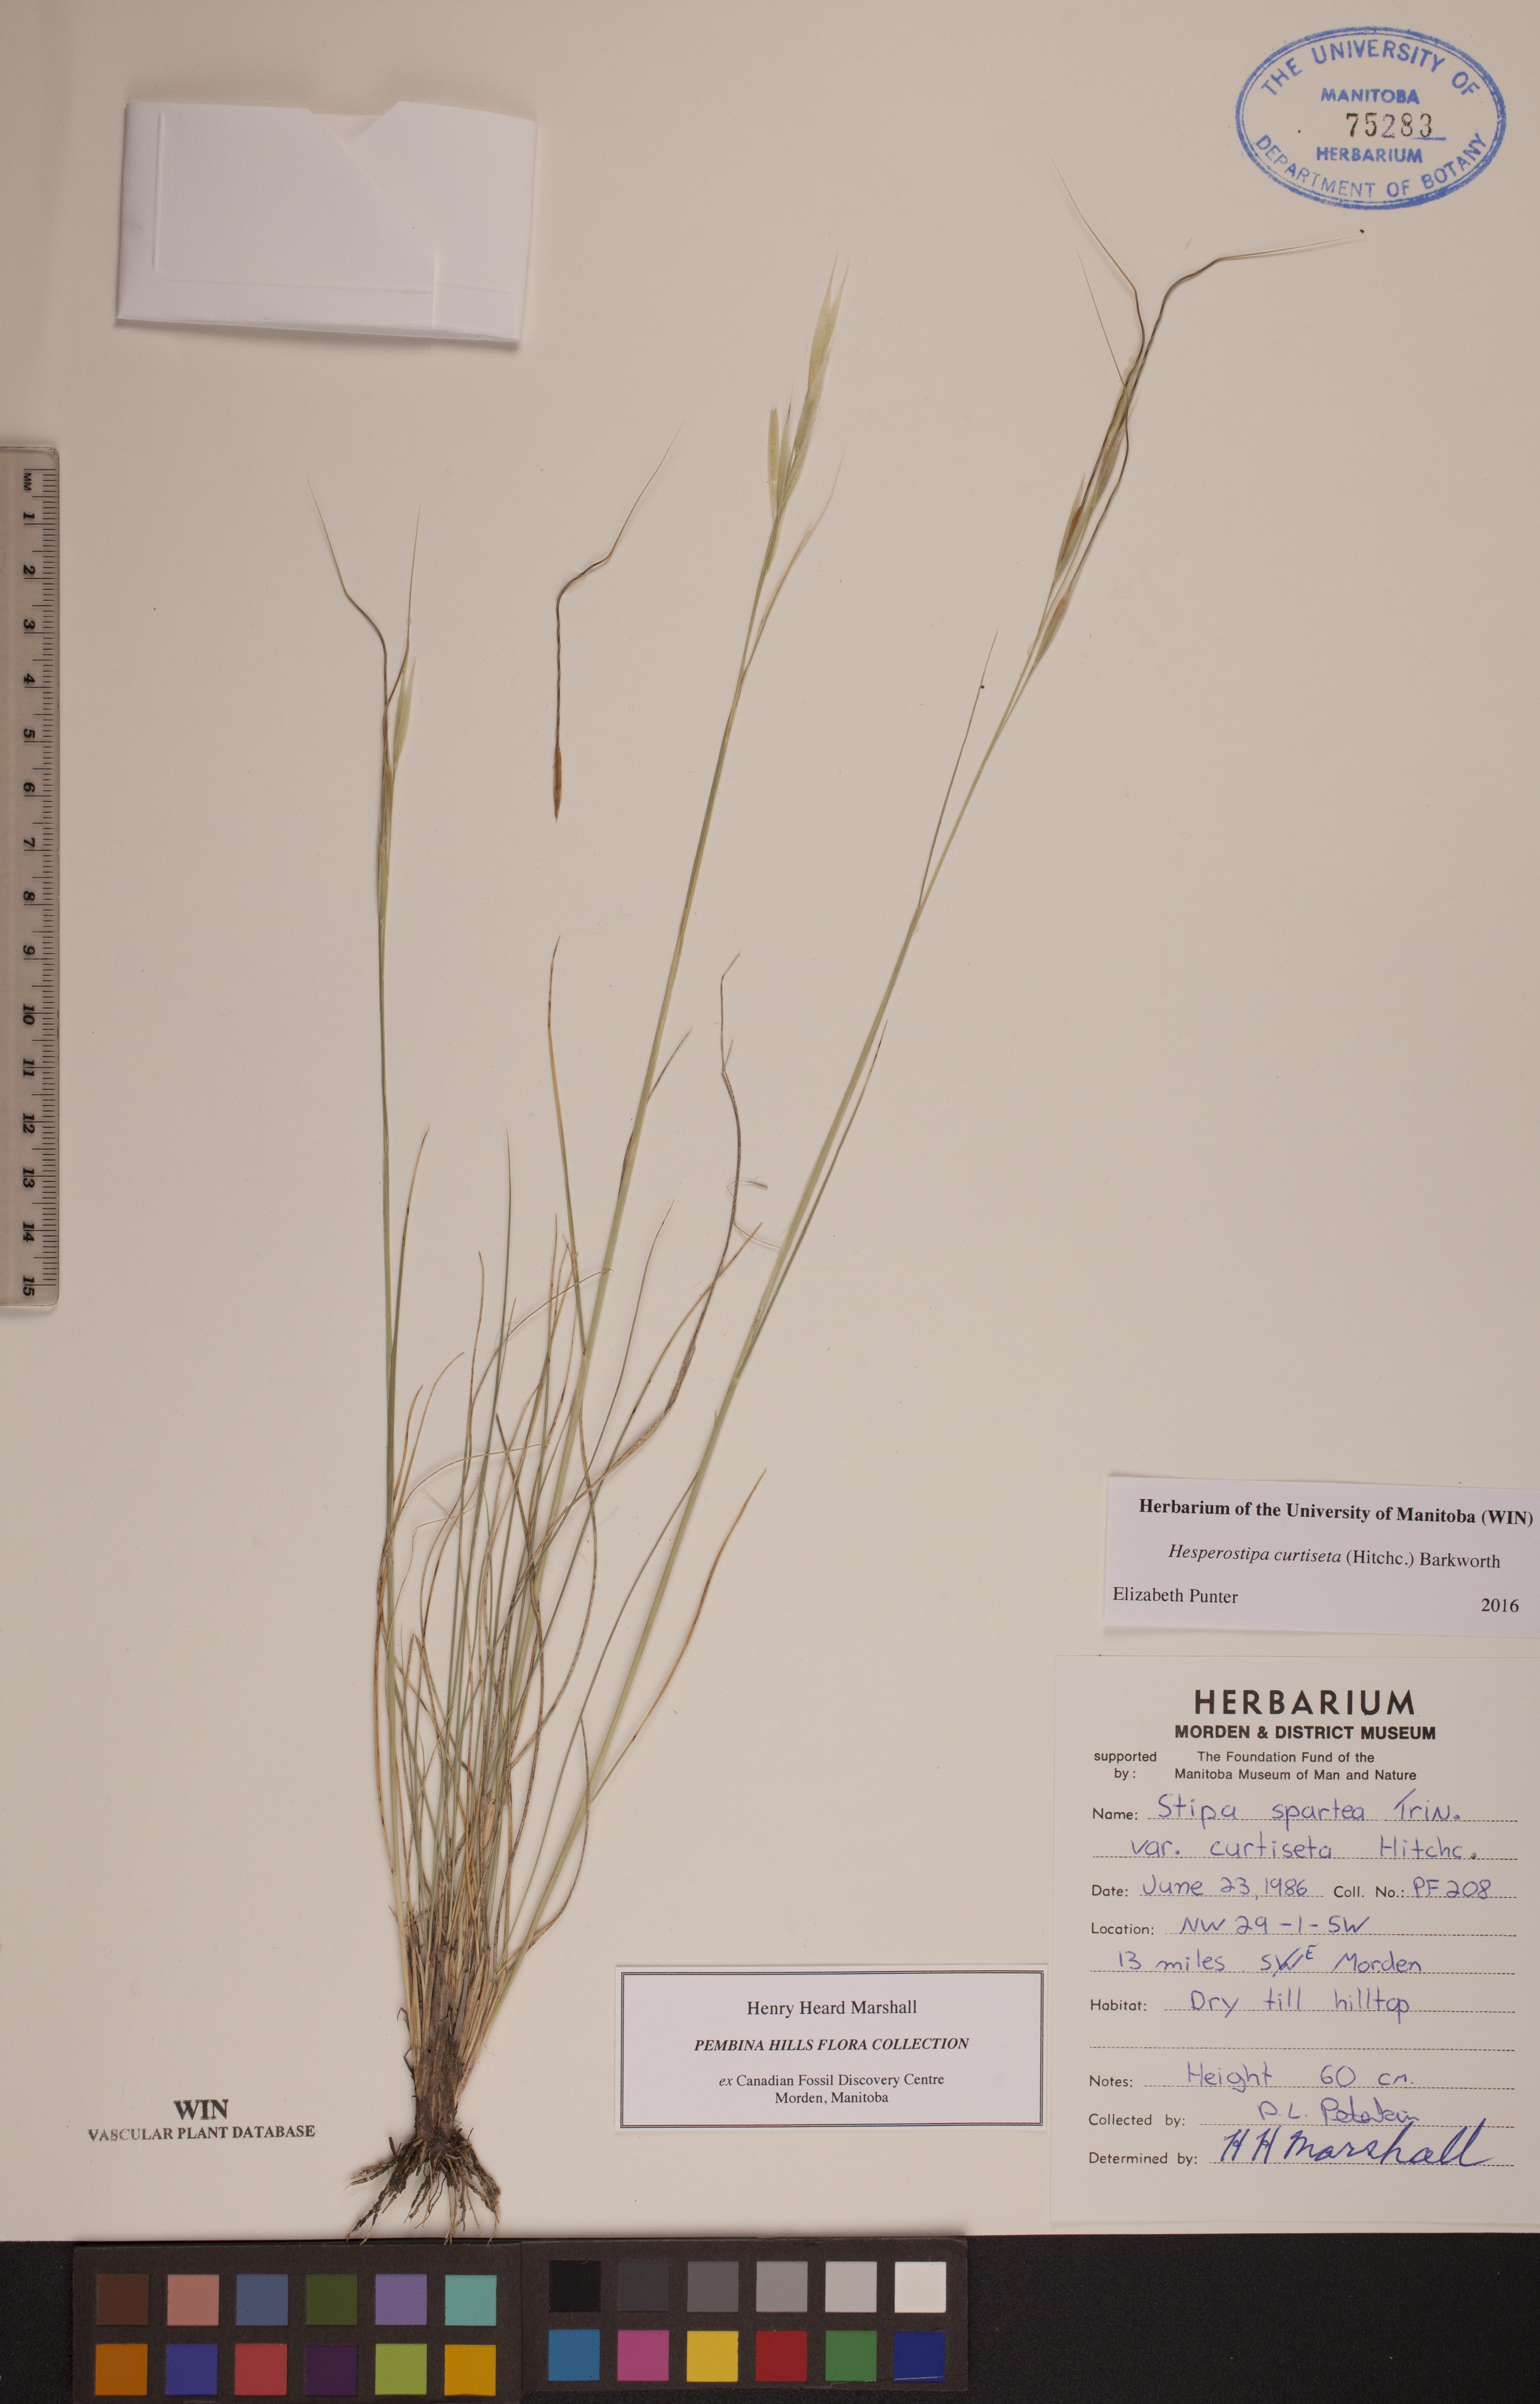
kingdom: Plantae
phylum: Tracheophyta
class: Liliopsida
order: Poales
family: Poaceae
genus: Hesperostipa
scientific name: Hesperostipa curtiseta
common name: Canada needle-and-thread grass
